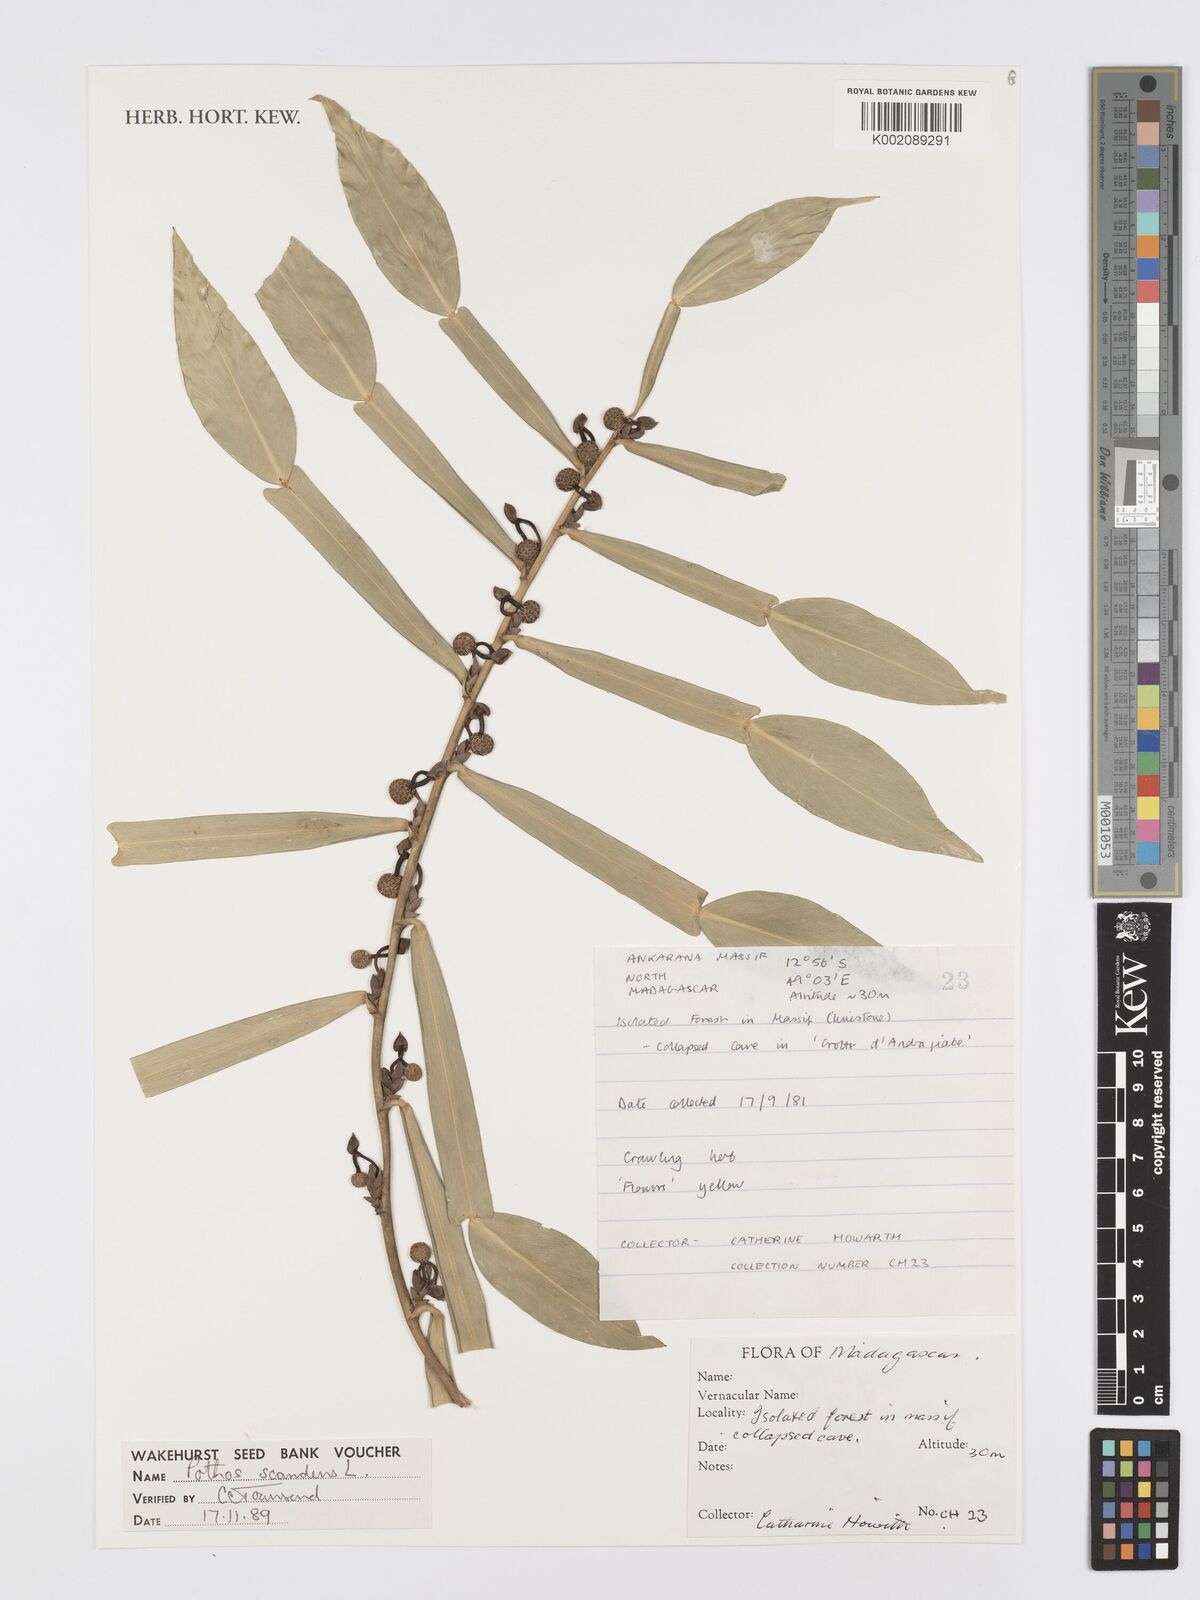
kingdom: Plantae
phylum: Tracheophyta
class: Liliopsida
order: Alismatales
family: Araceae
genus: Pothos
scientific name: Pothos scandens
